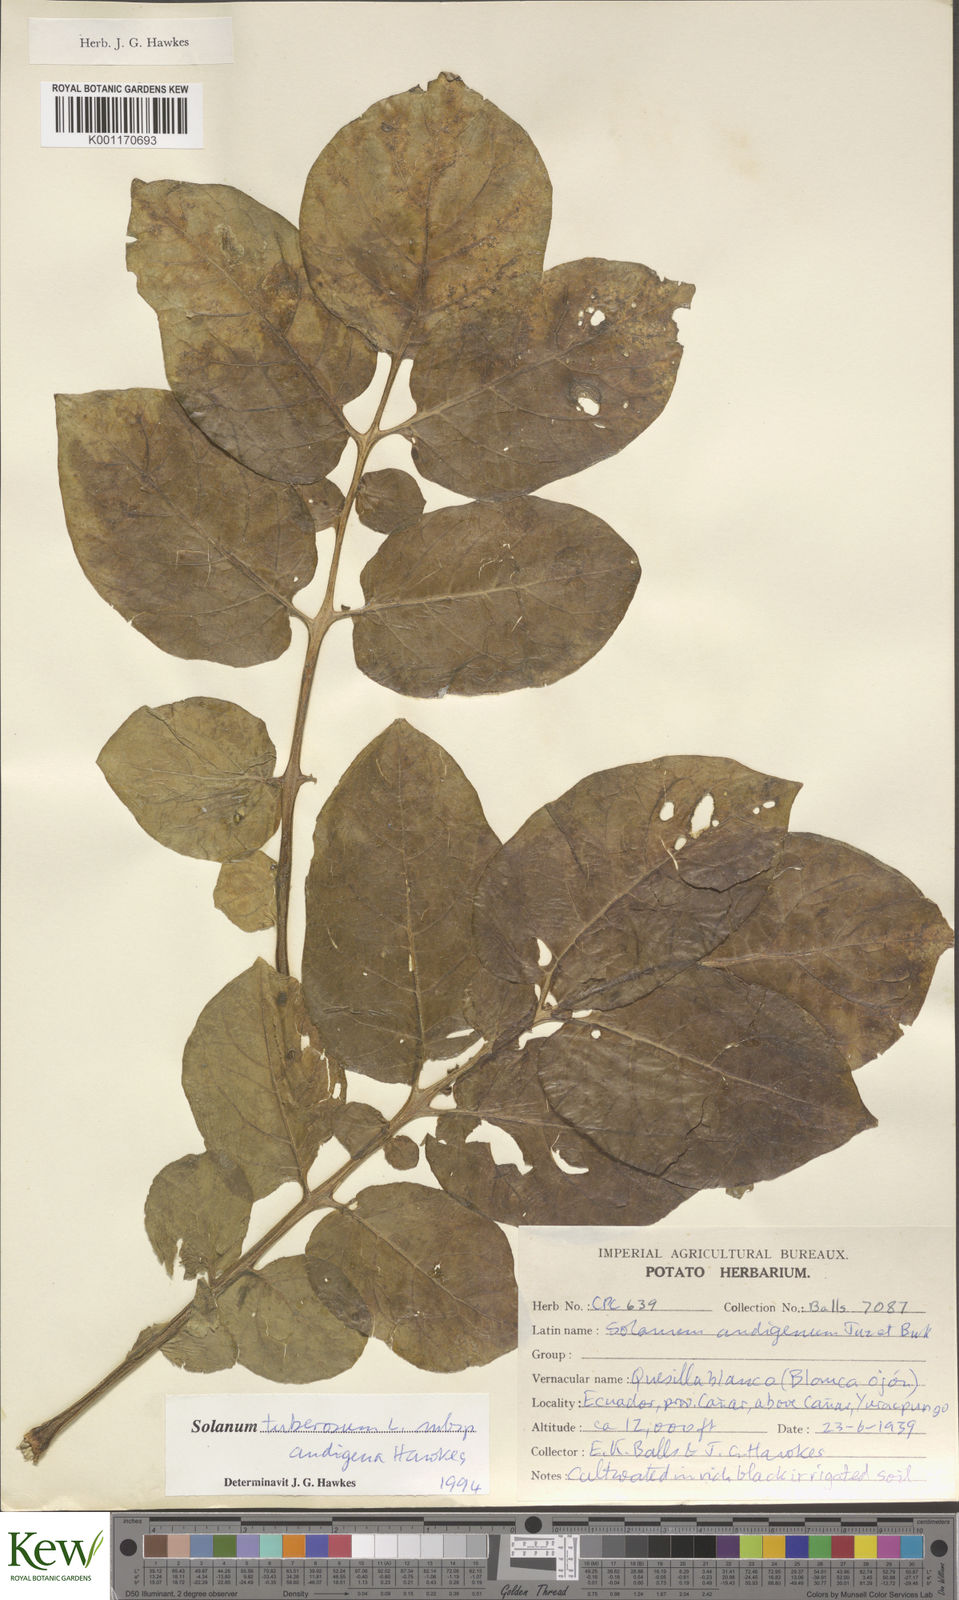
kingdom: Plantae
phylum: Tracheophyta
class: Magnoliopsida
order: Solanales
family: Solanaceae
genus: Solanum
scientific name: Solanum tuberosum
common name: Potato
